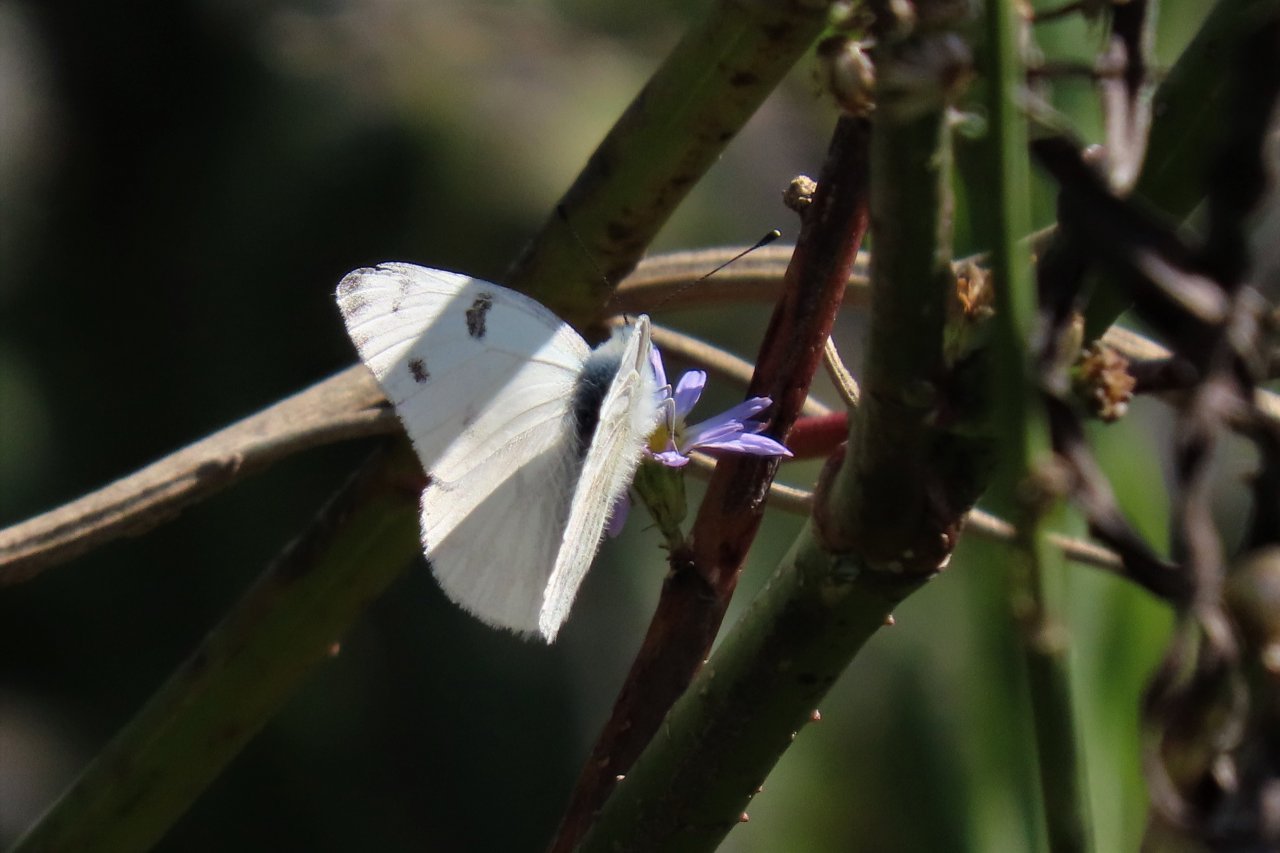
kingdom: Animalia
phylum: Arthropoda
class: Insecta
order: Lepidoptera
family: Pieridae
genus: Pontia
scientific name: Pontia protodice
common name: Checkered White
